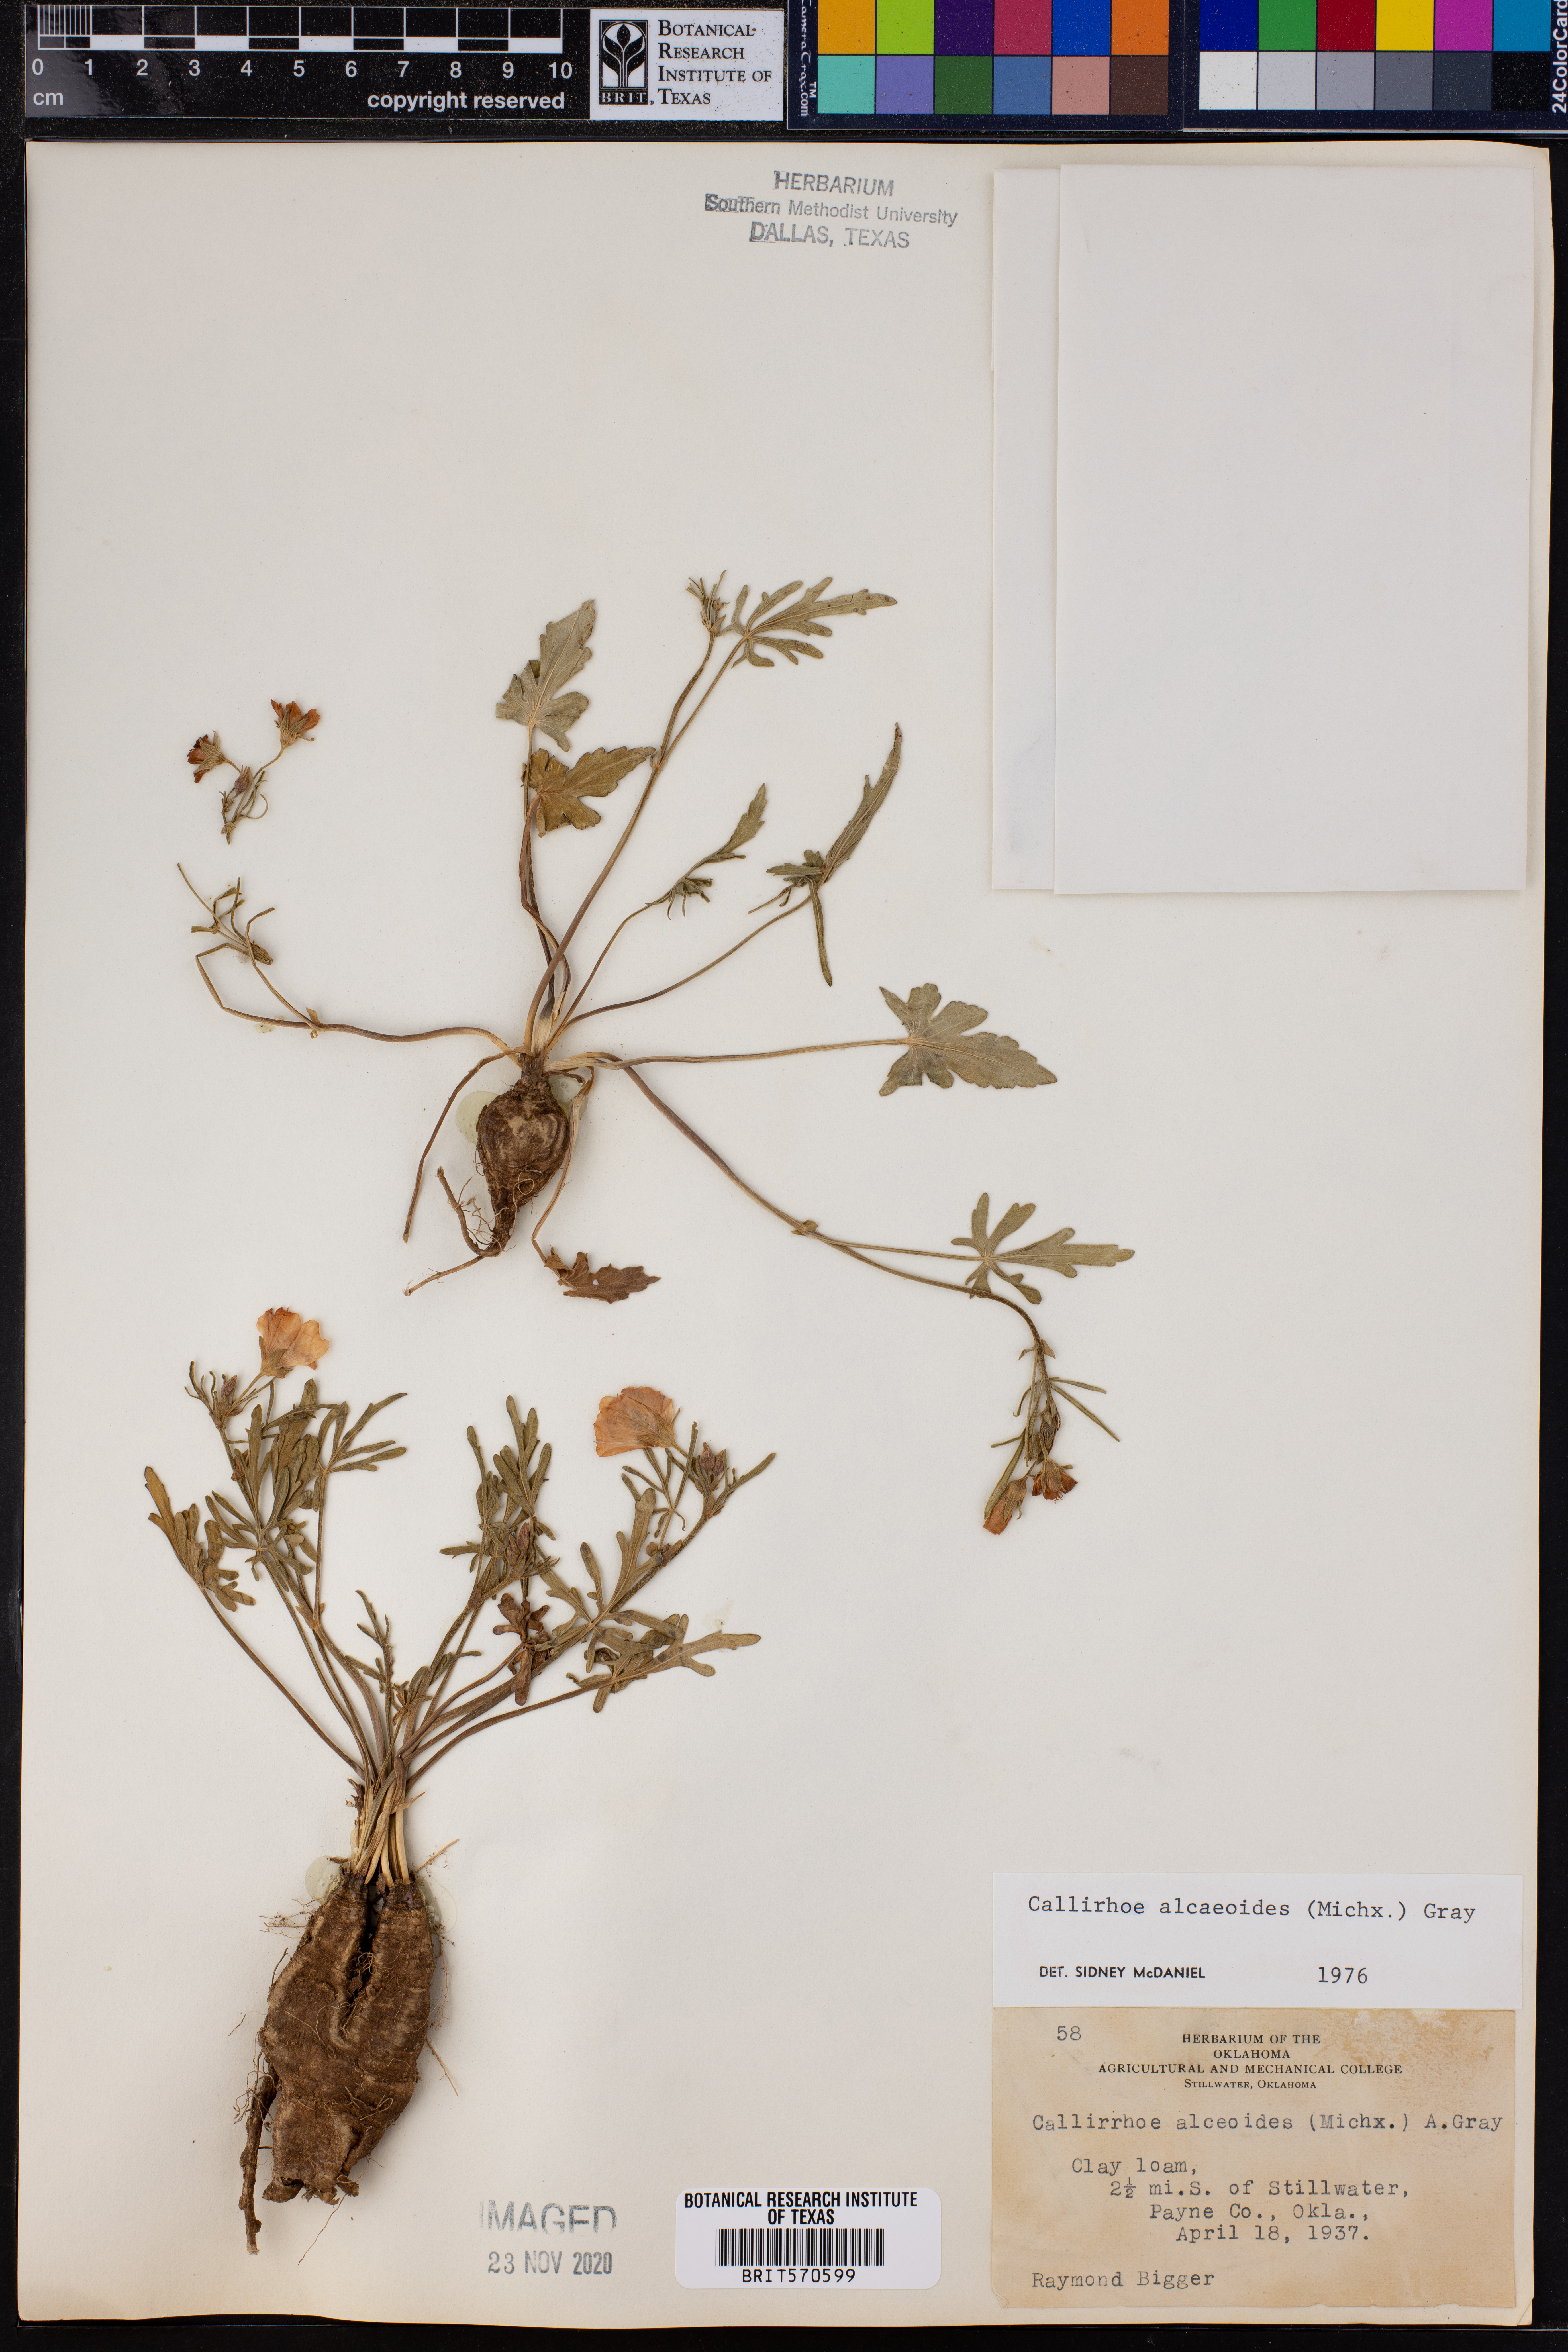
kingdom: Plantae
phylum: Tracheophyta
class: Magnoliopsida
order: Malvales
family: Malvaceae
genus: Callirhoe
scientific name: Callirhoe alcaeoides
